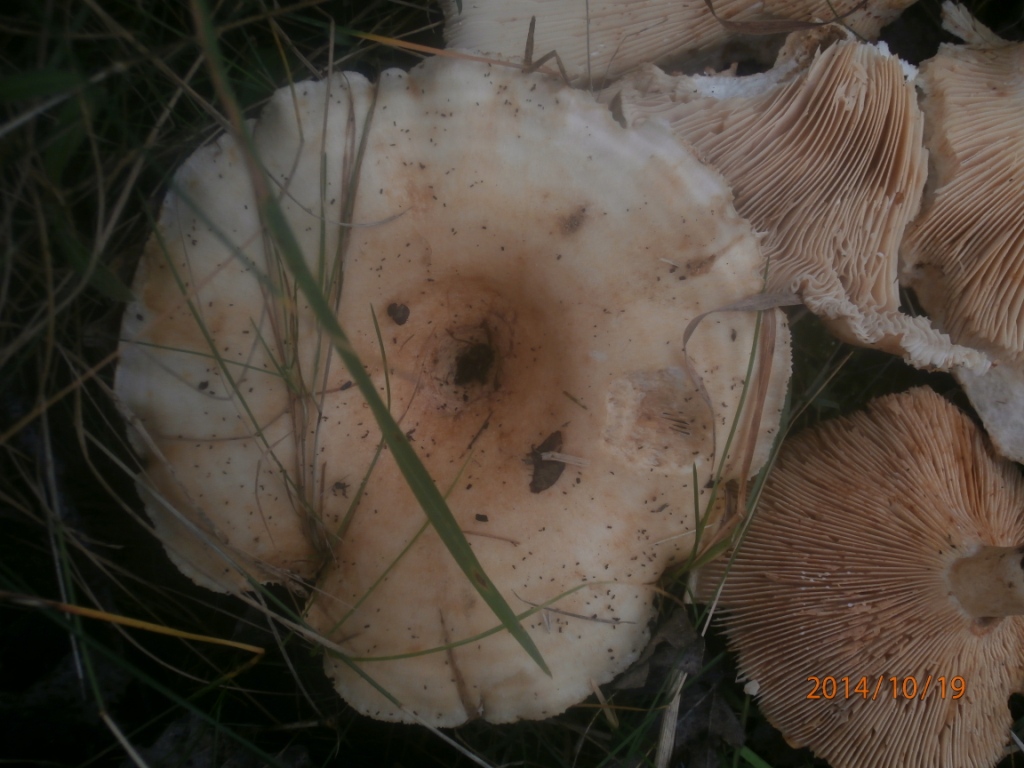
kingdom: Fungi
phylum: Basidiomycota
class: Agaricomycetes
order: Russulales
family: Russulaceae
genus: Lactarius
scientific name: Lactarius evosmus
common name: bæltet mælkehat
